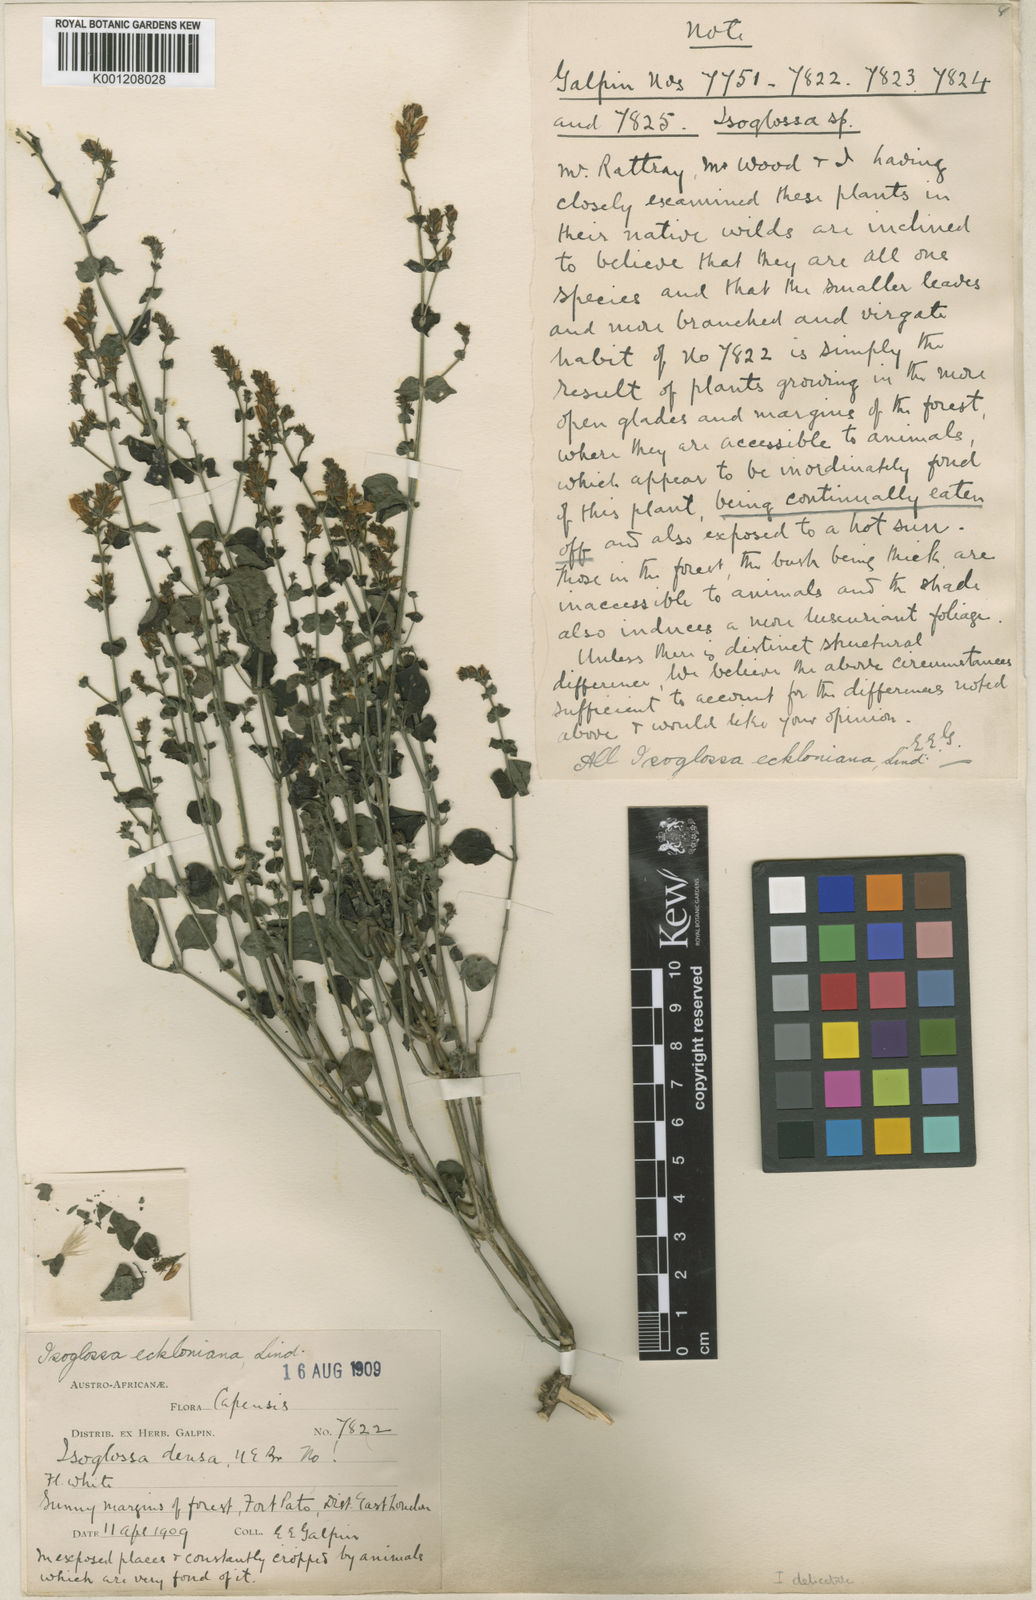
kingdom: Plantae
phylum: Tracheophyta
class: Magnoliopsida
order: Lamiales
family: Acanthaceae
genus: Isoglossa
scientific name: Isoglossa delicatula
